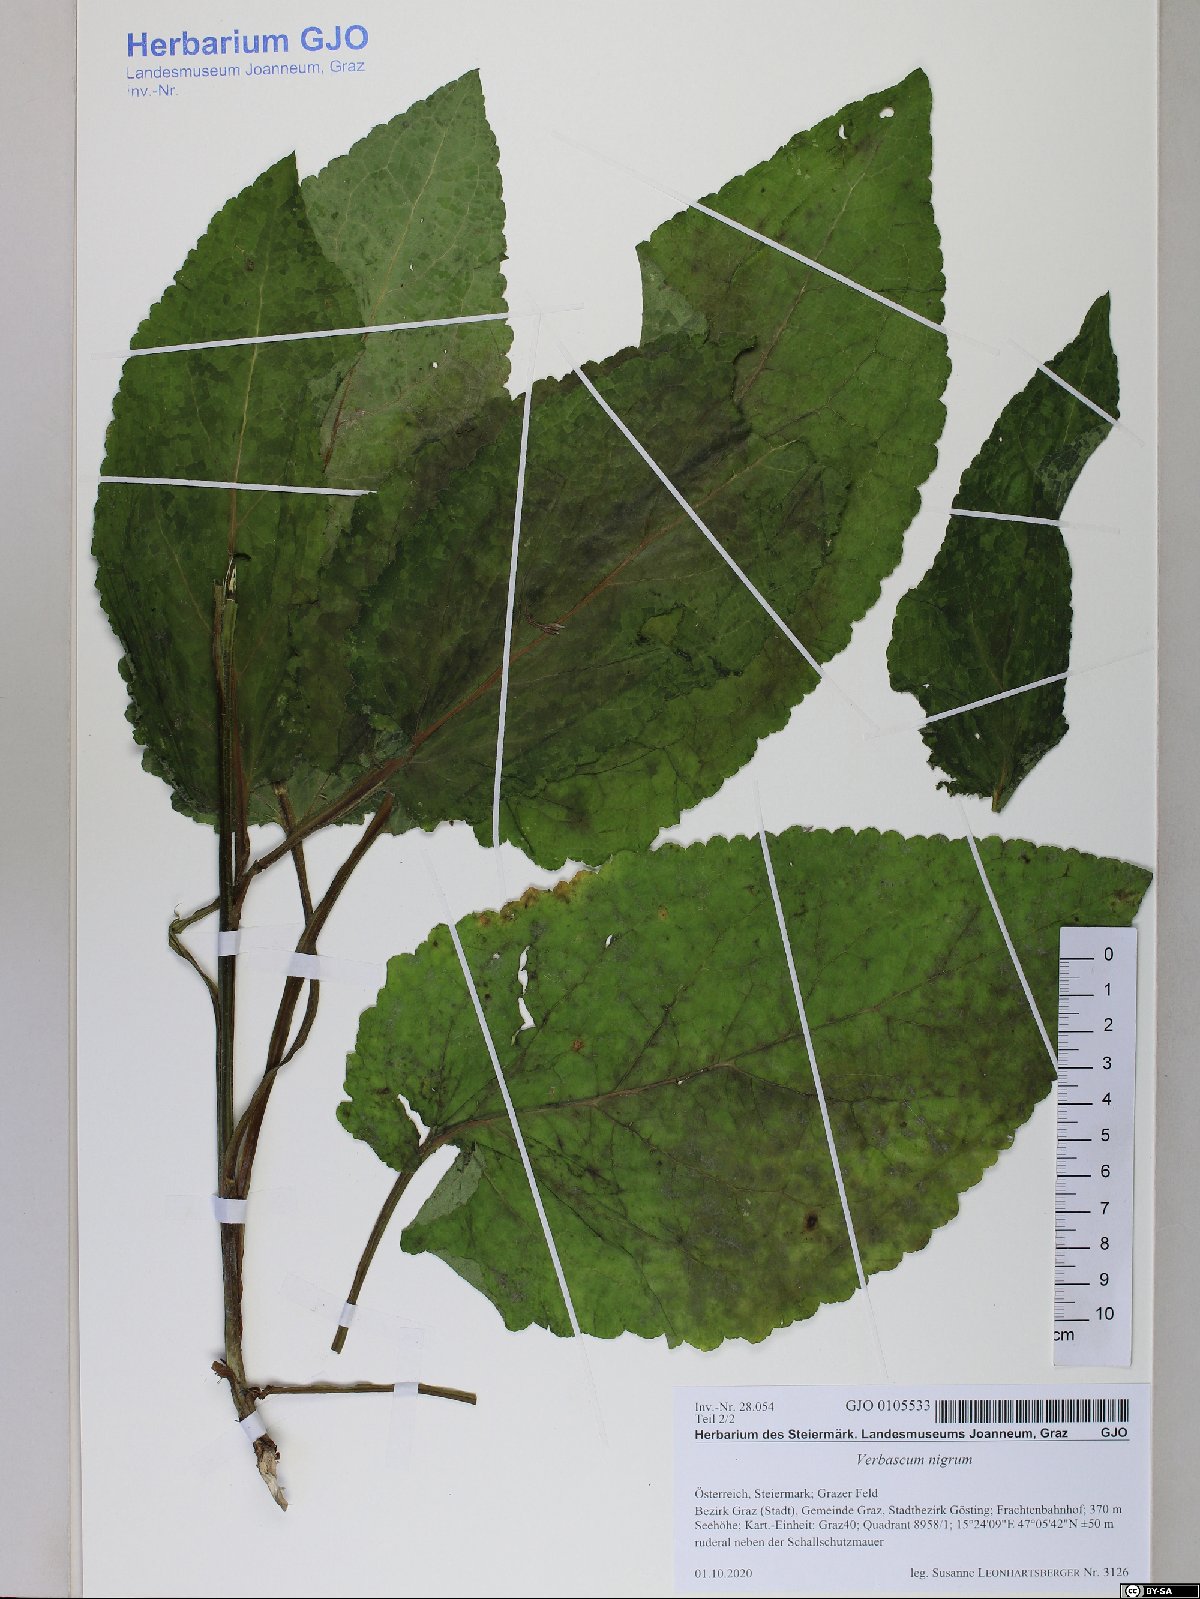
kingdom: Plantae
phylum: Tracheophyta
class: Magnoliopsida
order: Lamiales
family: Scrophulariaceae
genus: Verbascum
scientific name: Verbascum nigrum
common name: Dark mullein
